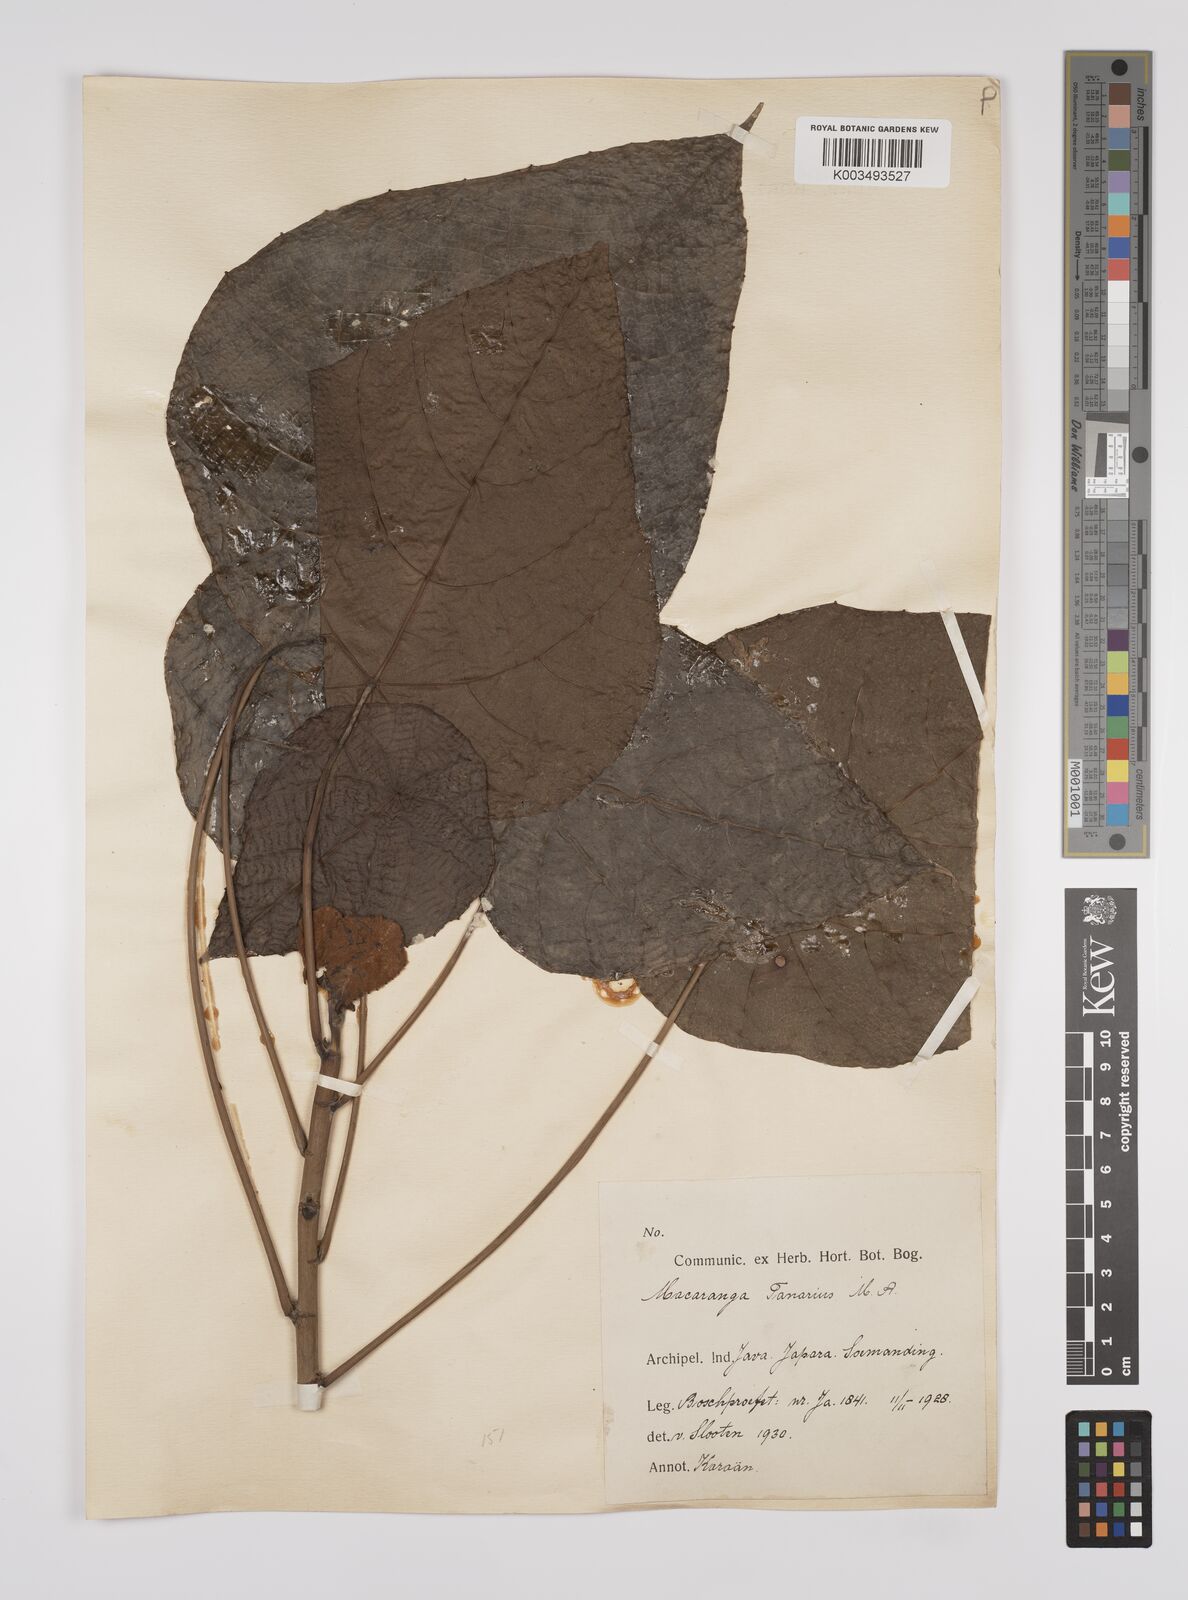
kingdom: Plantae
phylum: Tracheophyta
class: Magnoliopsida
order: Malpighiales
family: Euphorbiaceae
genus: Macaranga
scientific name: Macaranga tanarius
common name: Parasol leaf tree
